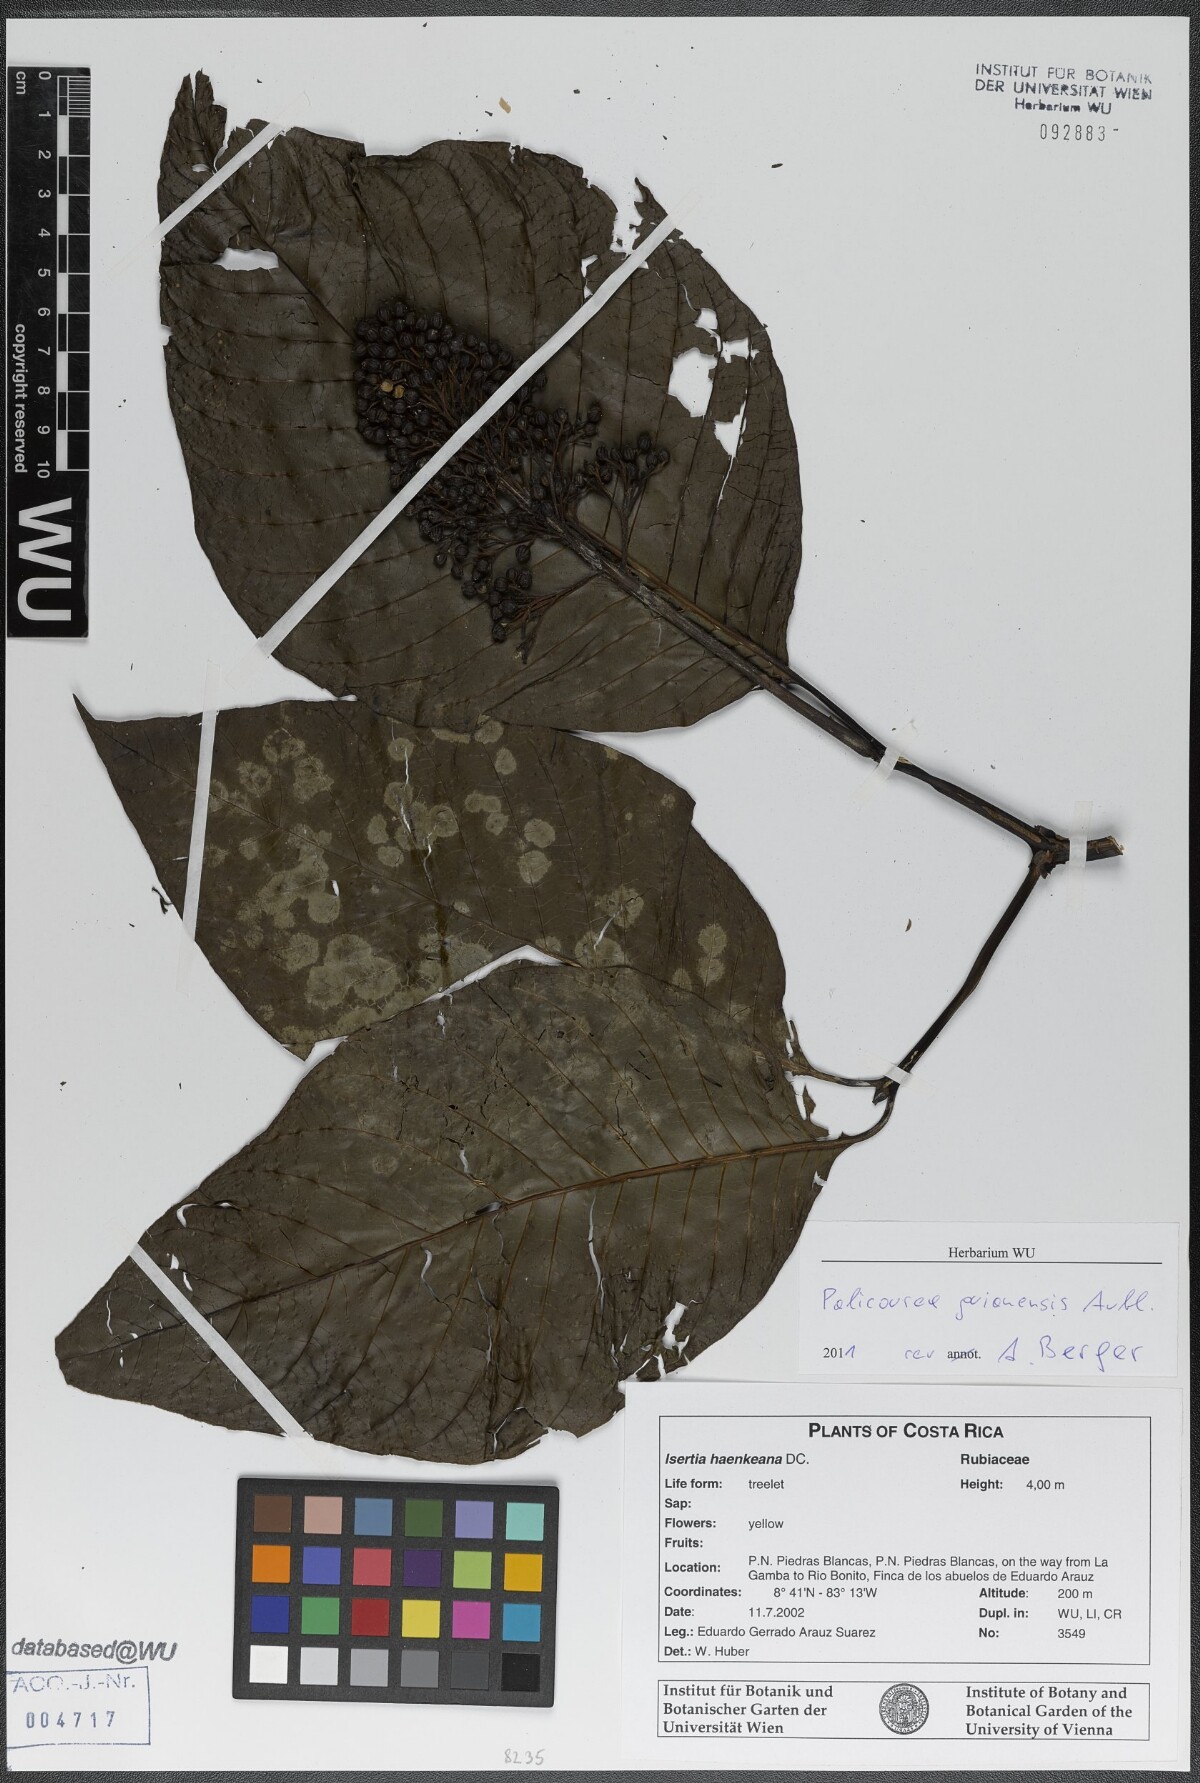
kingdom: Plantae
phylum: Tracheophyta
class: Magnoliopsida
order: Gentianales
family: Rubiaceae
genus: Palicourea
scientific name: Palicourea guianensis
